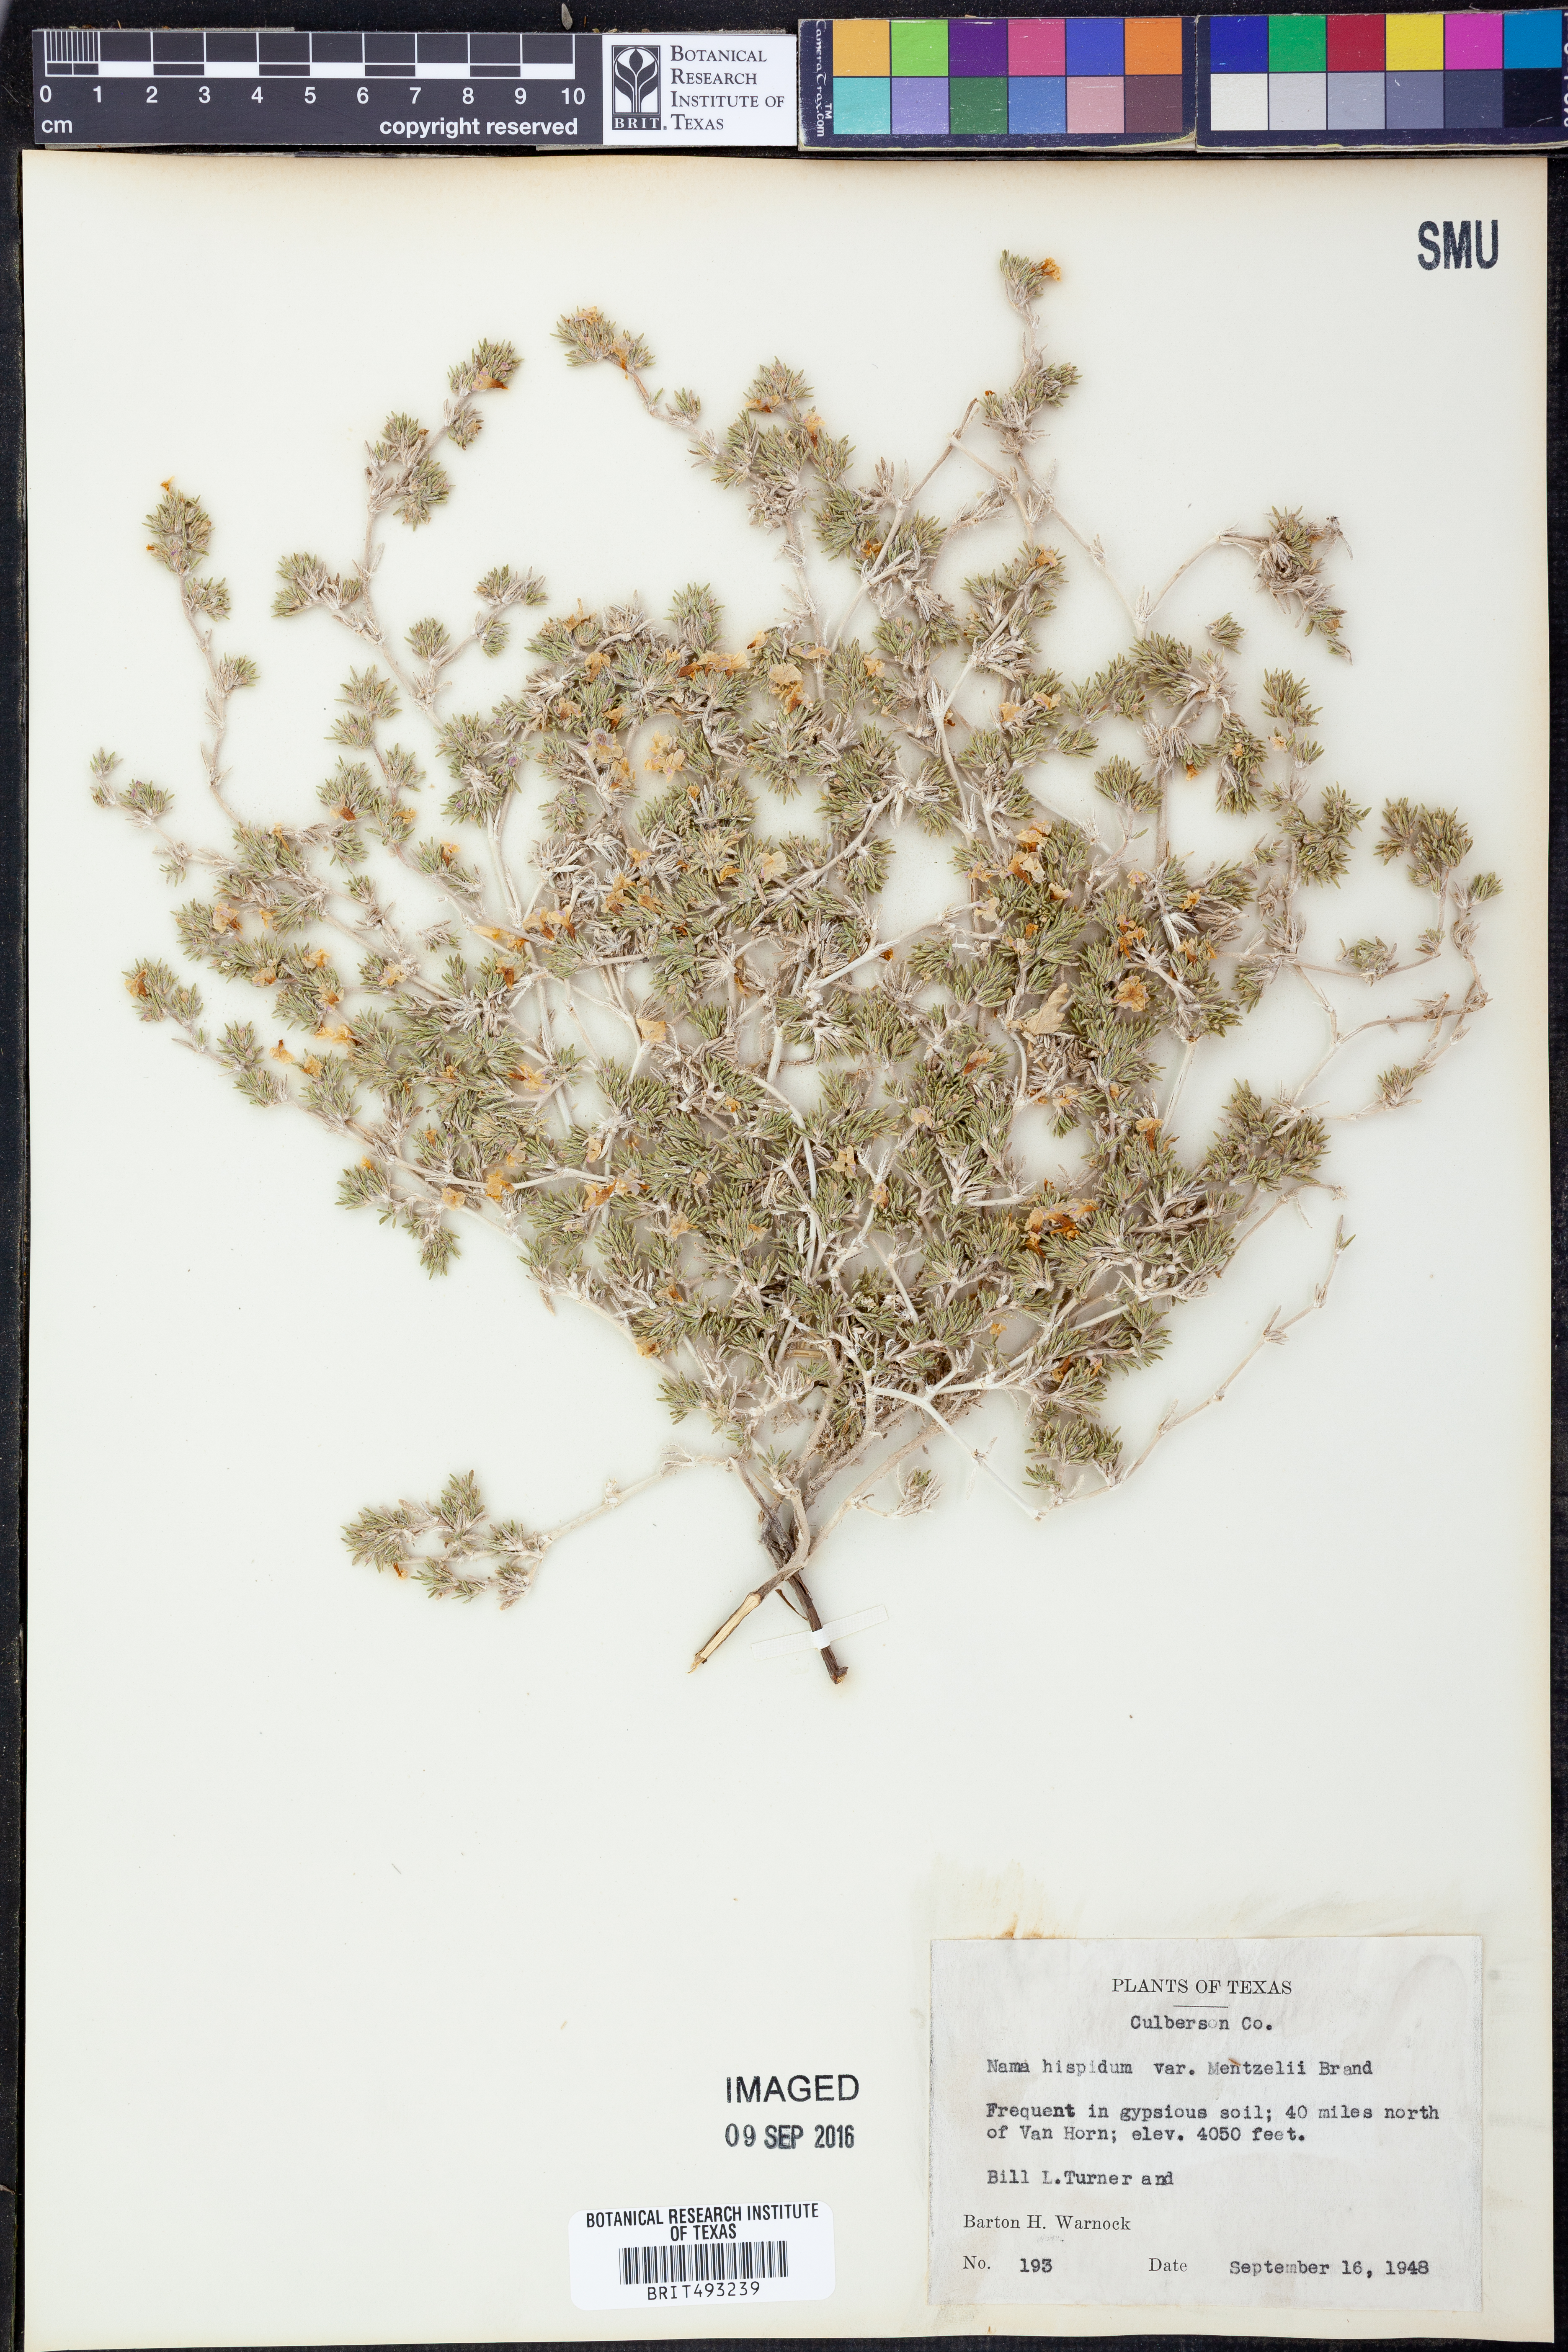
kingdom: Plantae
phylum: Tracheophyta
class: Magnoliopsida
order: Boraginales
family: Namaceae
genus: Nama
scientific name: Nama hispida
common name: Bristly nama
